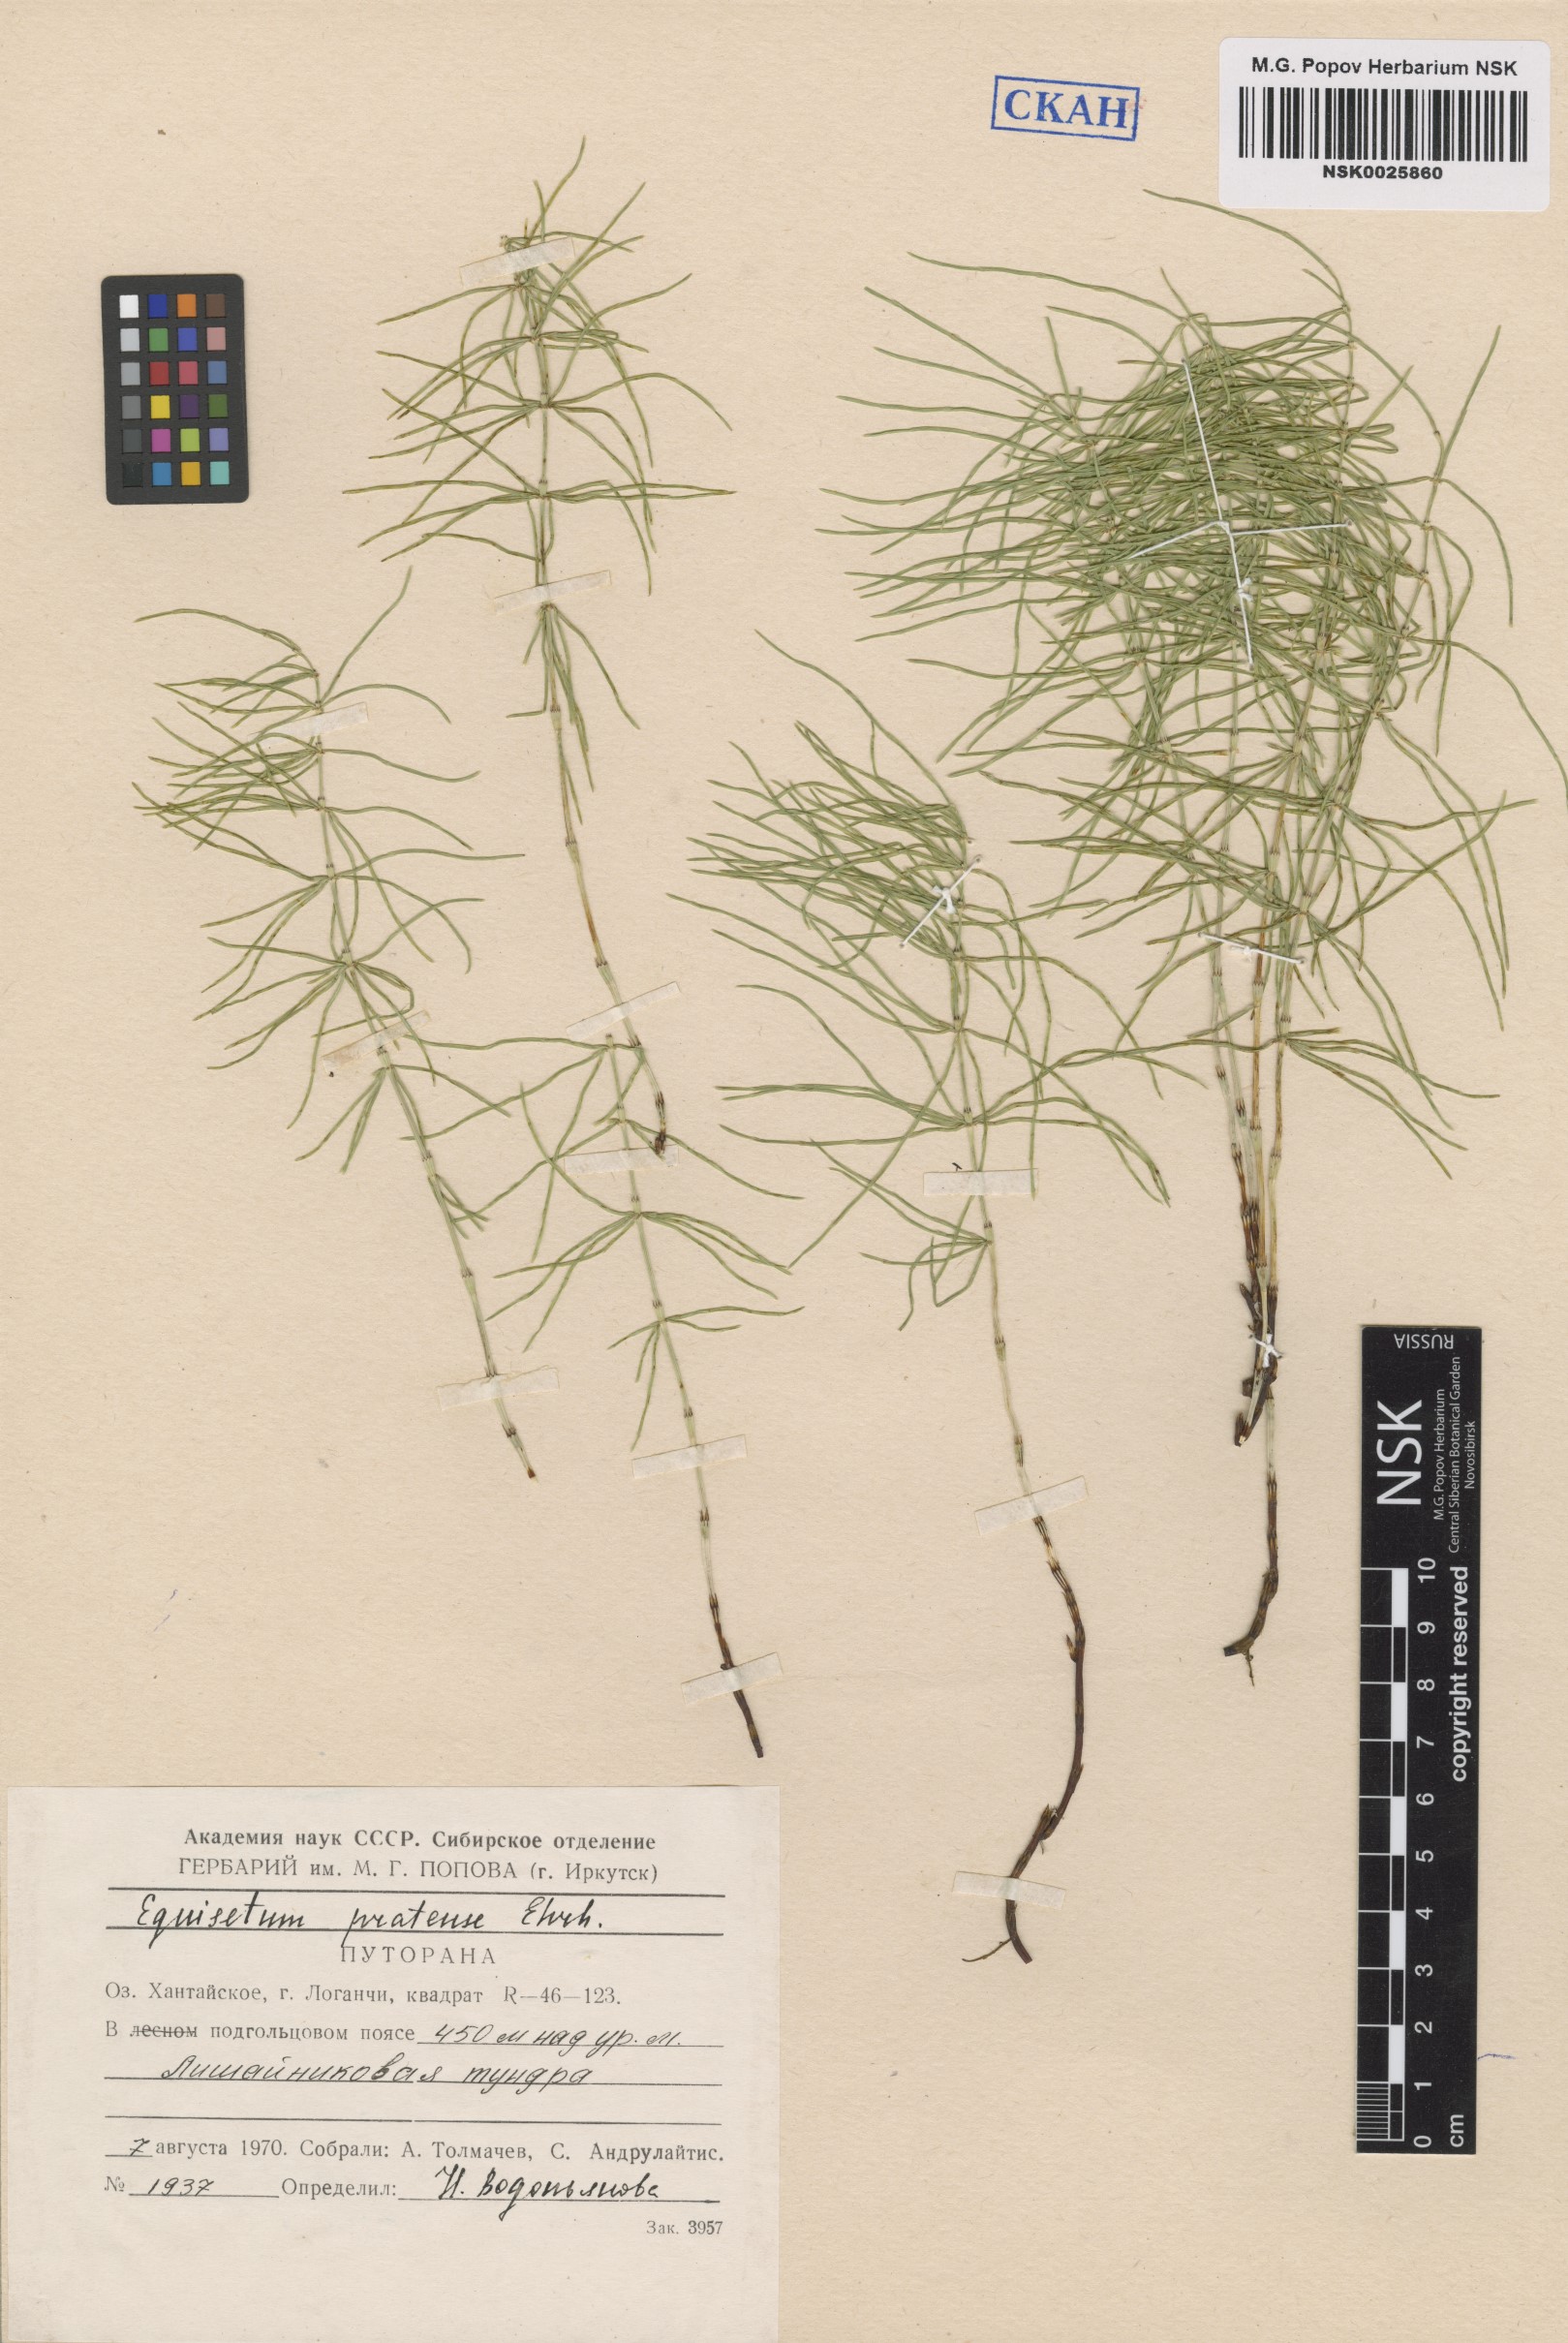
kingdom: Plantae
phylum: Tracheophyta
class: Polypodiopsida
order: Equisetales
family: Equisetaceae
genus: Equisetum
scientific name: Equisetum pratense
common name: Meadow horsetail
